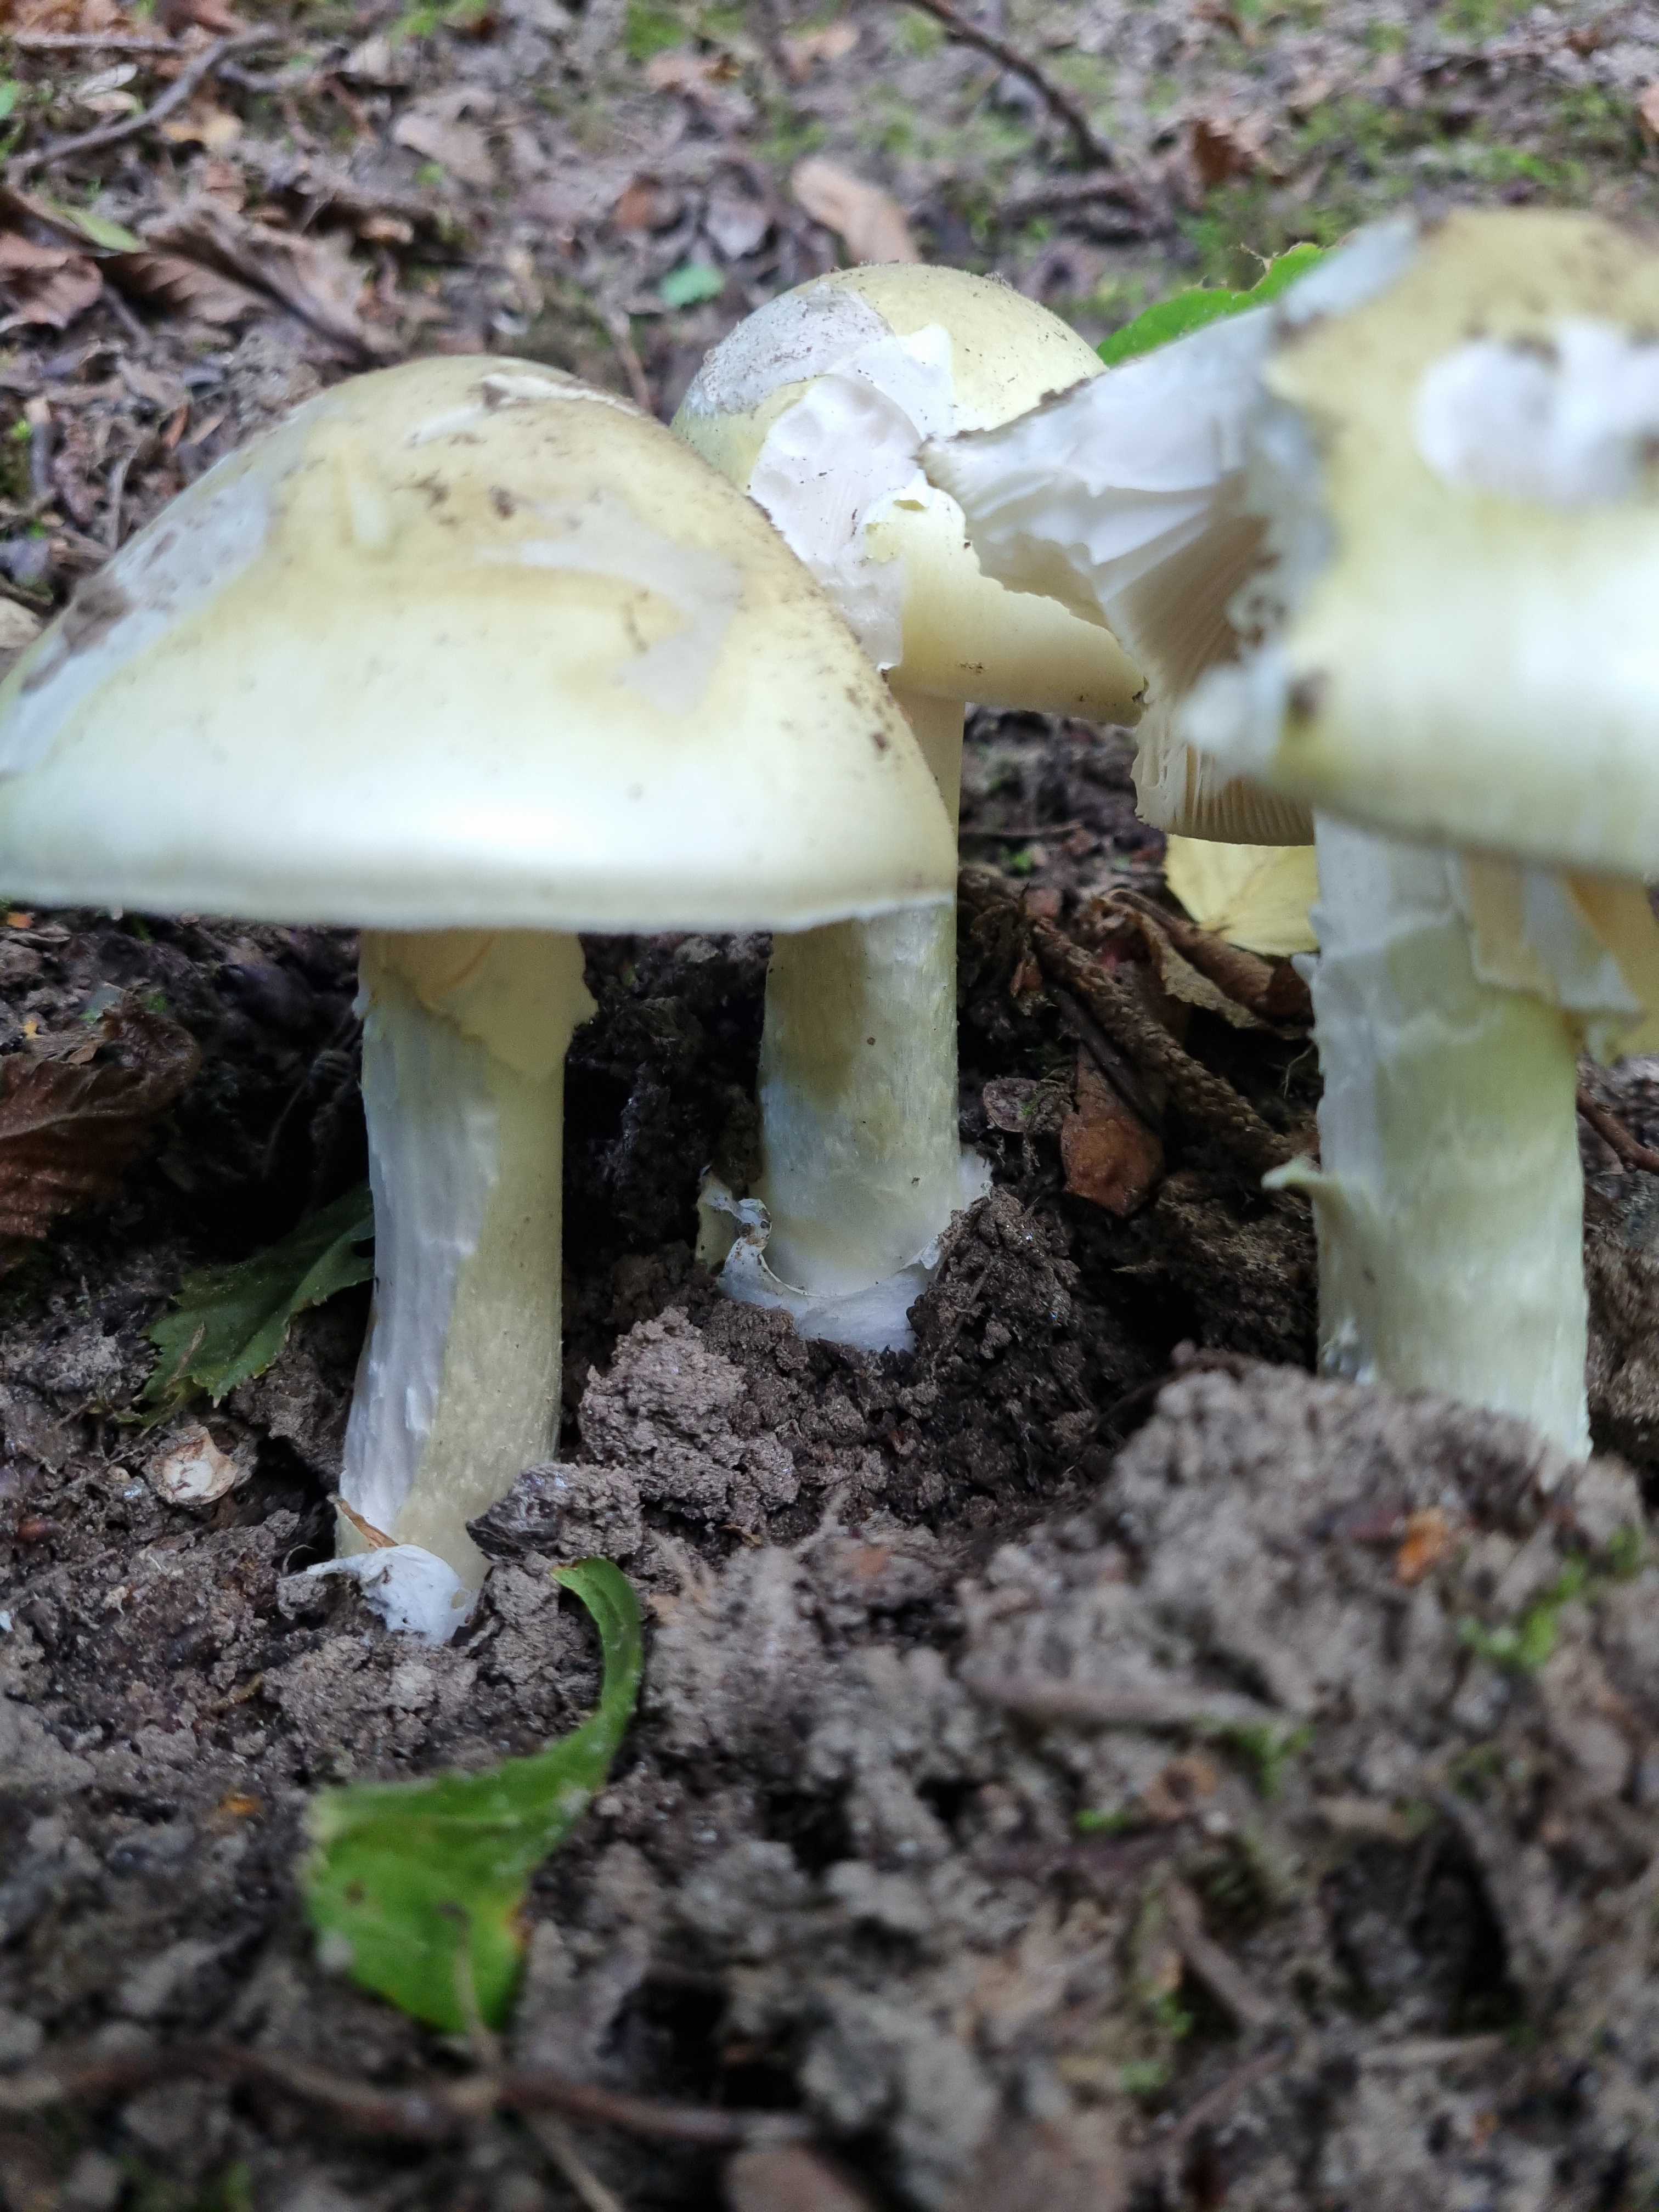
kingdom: Fungi
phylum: Basidiomycota
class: Agaricomycetes
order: Agaricales
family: Amanitaceae
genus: Amanita
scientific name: Amanita phalloides
